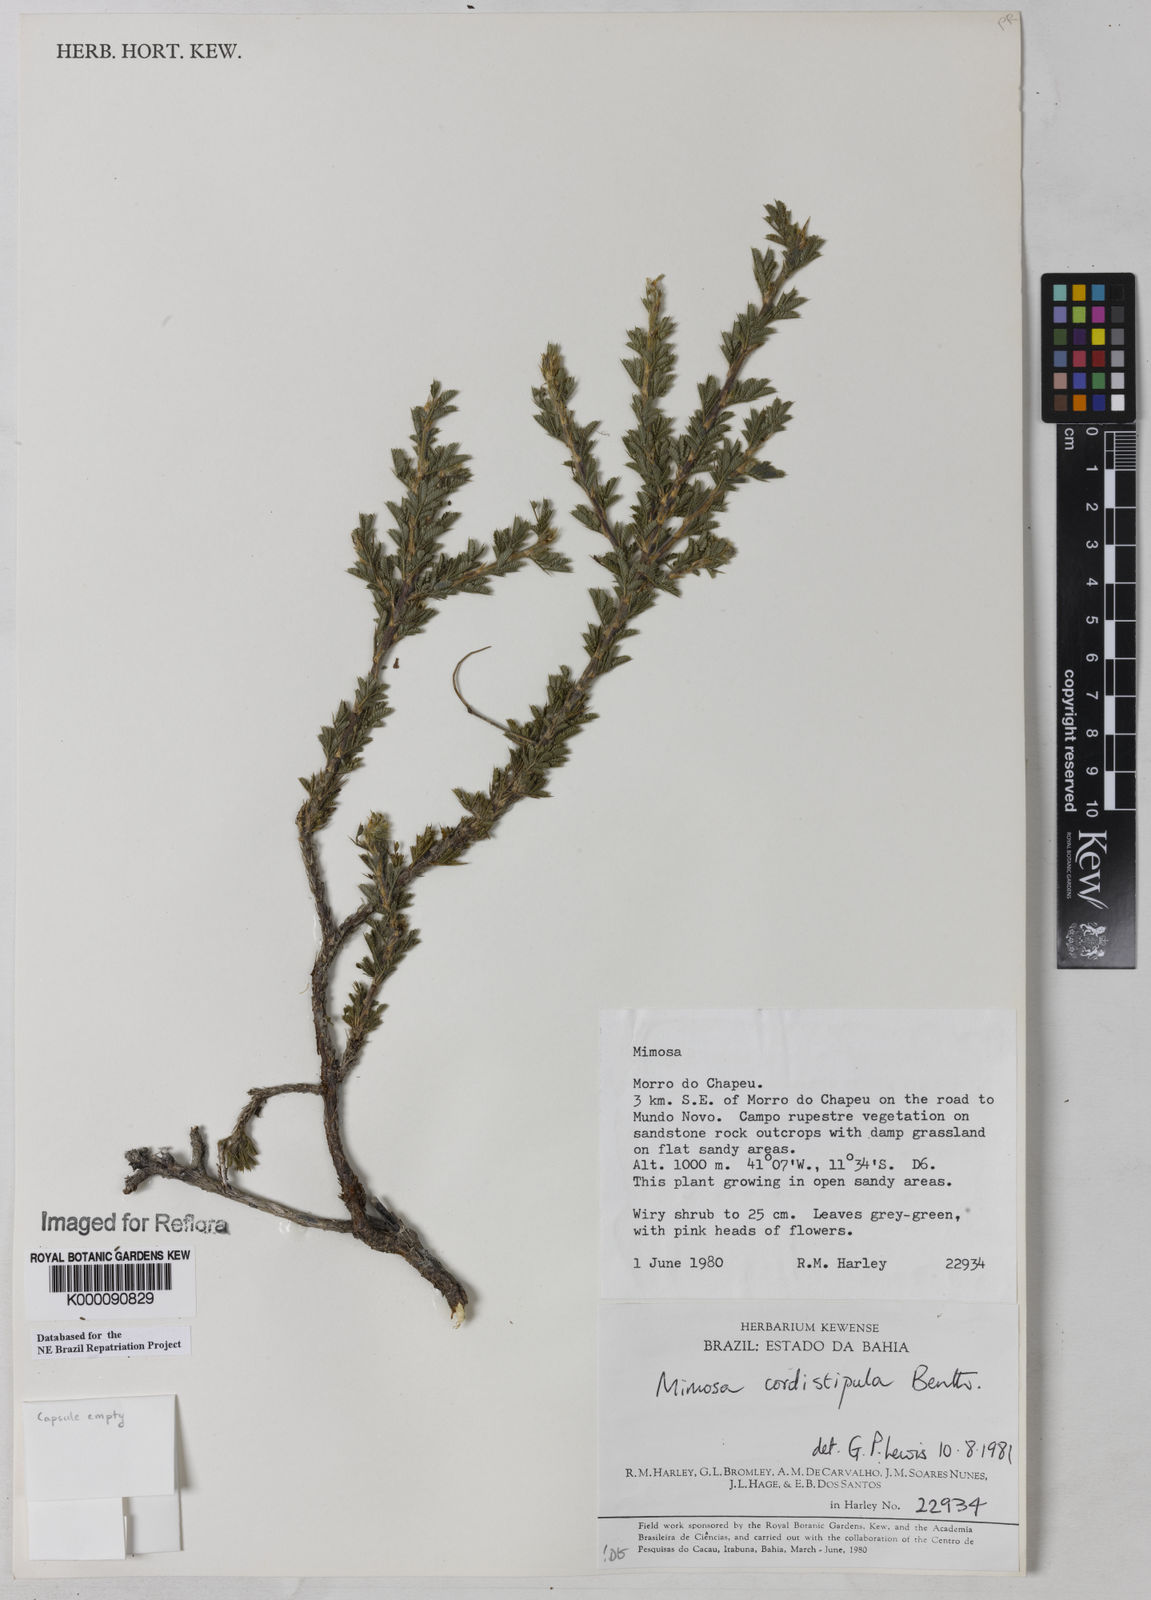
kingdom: Plantae
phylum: Tracheophyta
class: Magnoliopsida
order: Fabales
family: Fabaceae
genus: Mimosa
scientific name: Mimosa cordistipula
